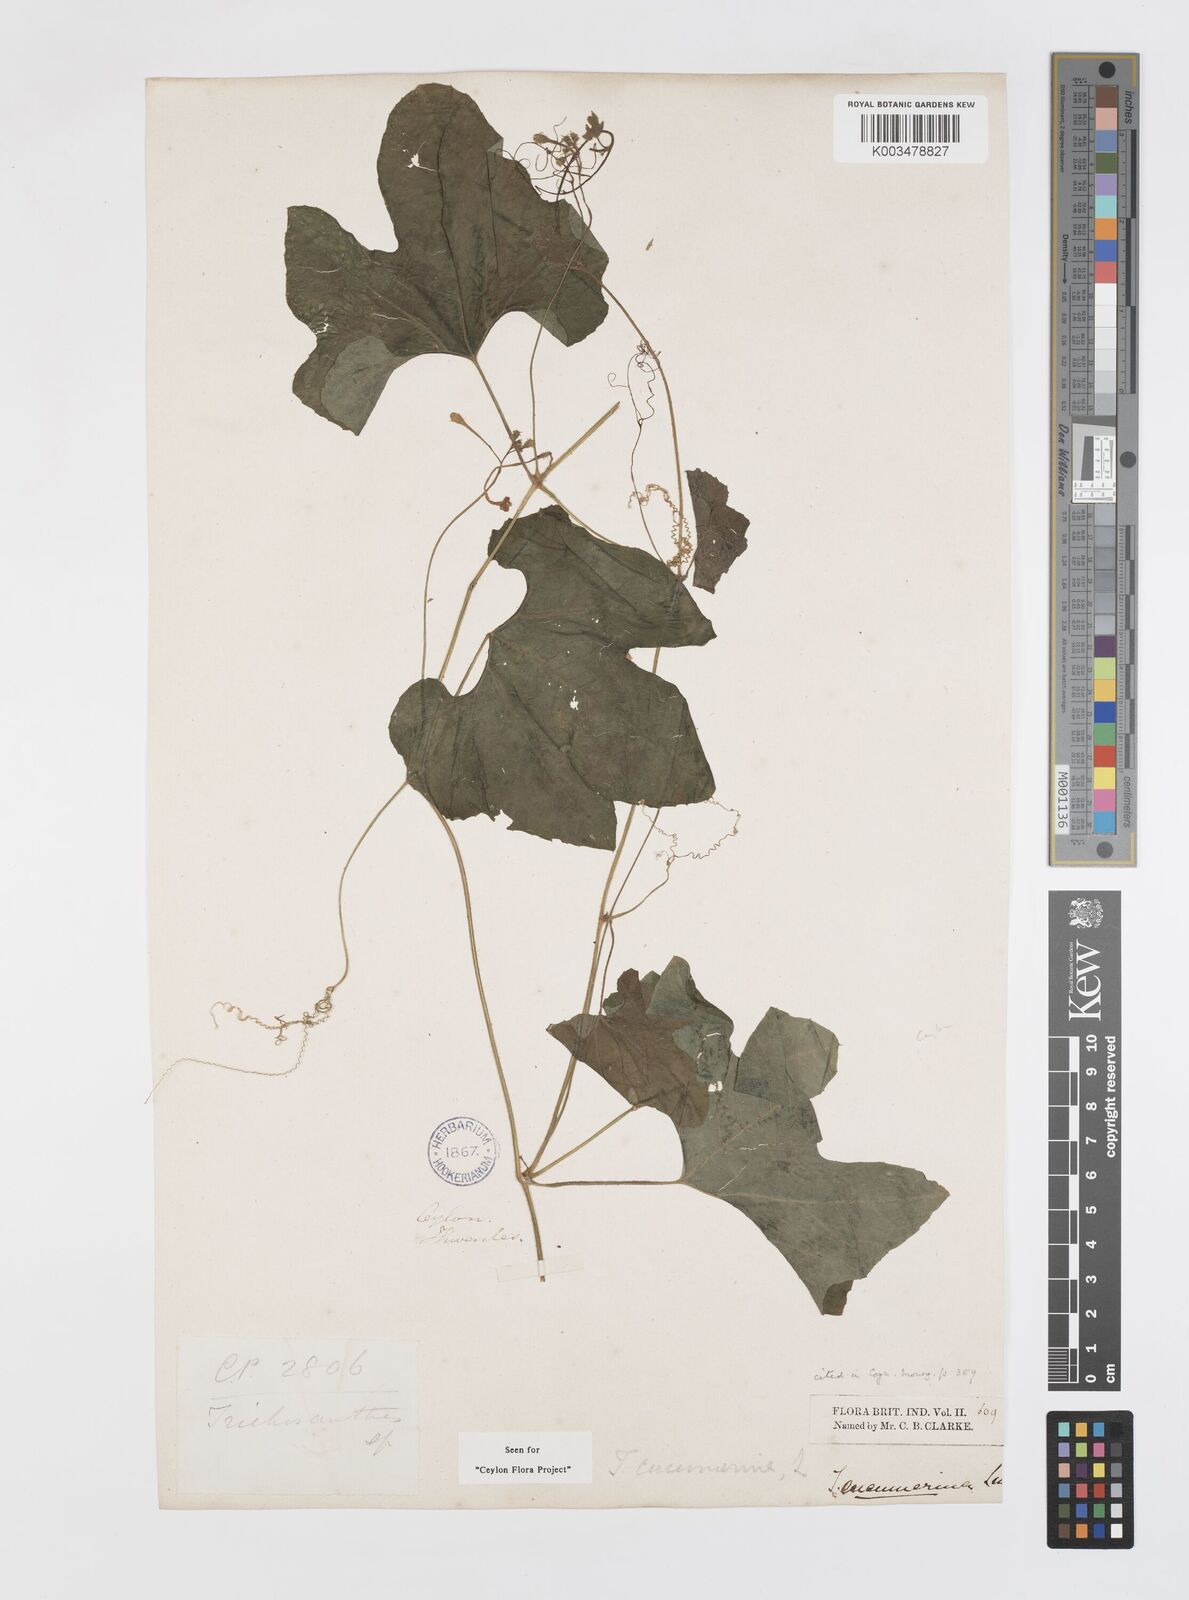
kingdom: Plantae
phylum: Tracheophyta
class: Magnoliopsida
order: Cucurbitales
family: Cucurbitaceae
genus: Trichosanthes
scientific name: Trichosanthes cucumerina
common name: Snakegourd
